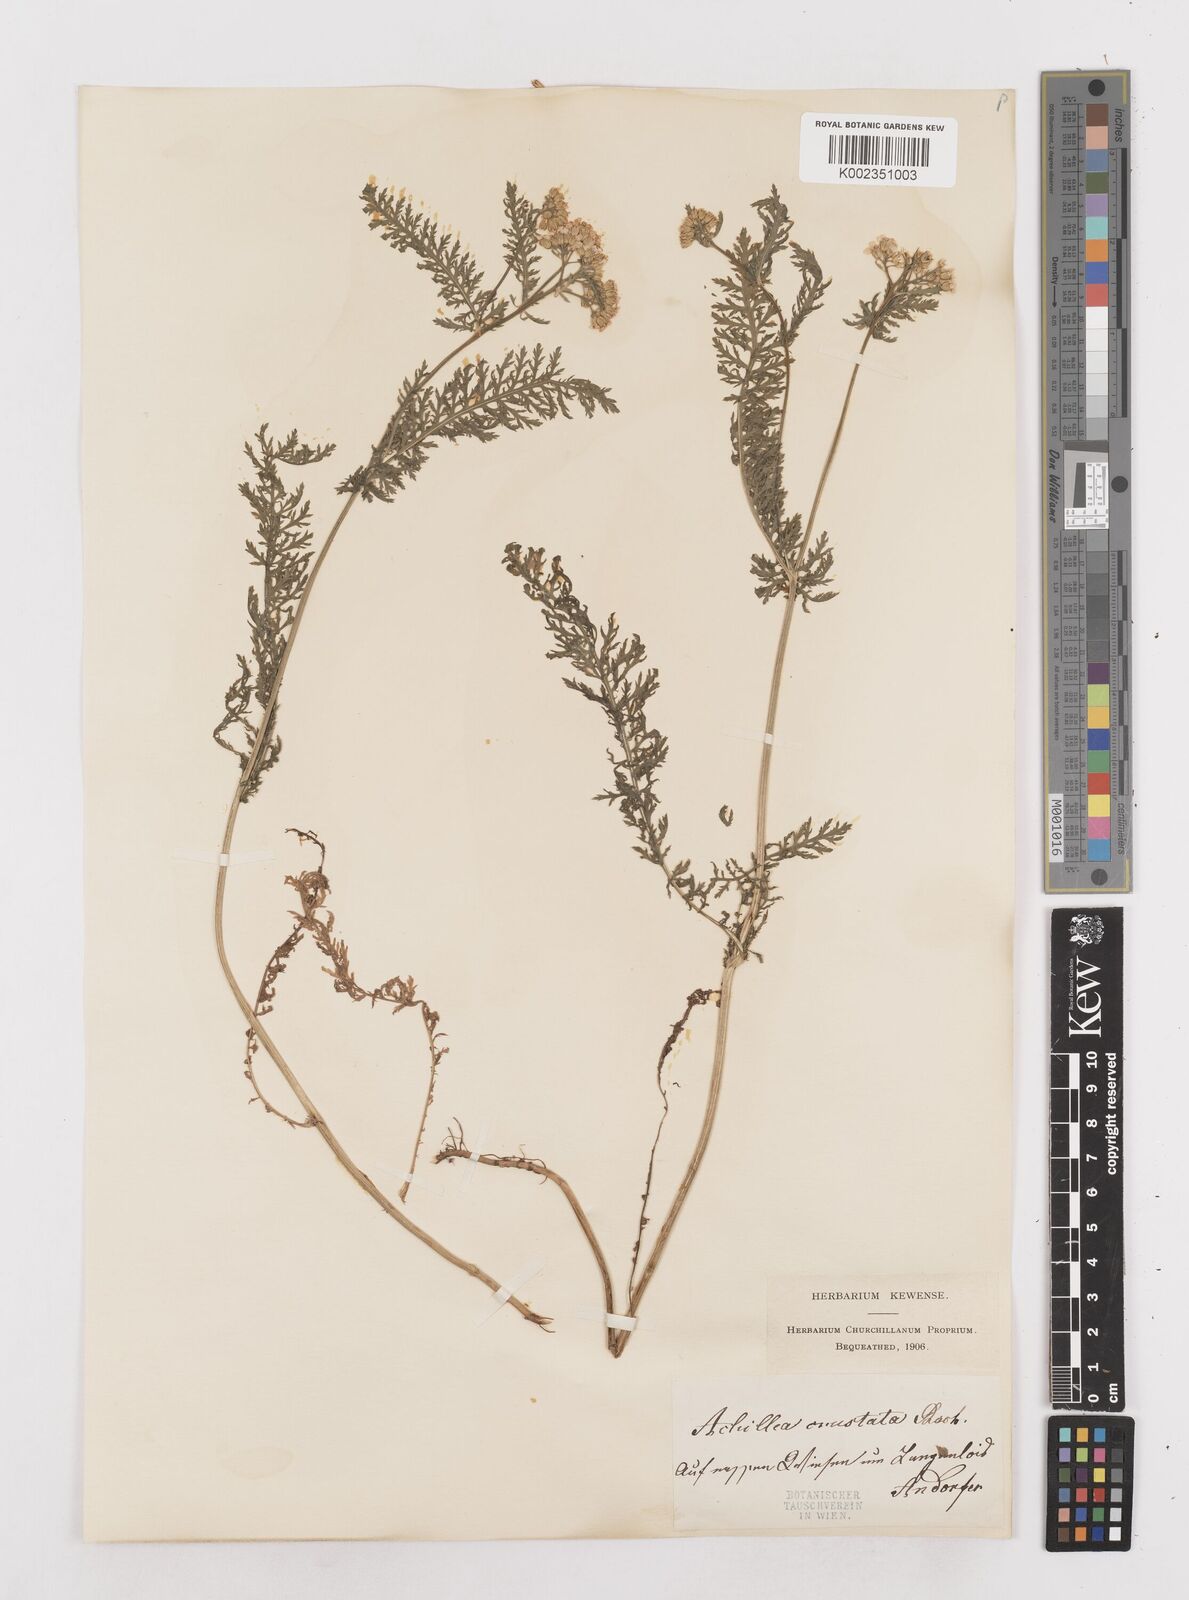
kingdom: Plantae
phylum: Tracheophyta
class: Magnoliopsida
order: Asterales
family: Asteraceae
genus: Achillea
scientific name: Achillea millefolium
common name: Yarrow
